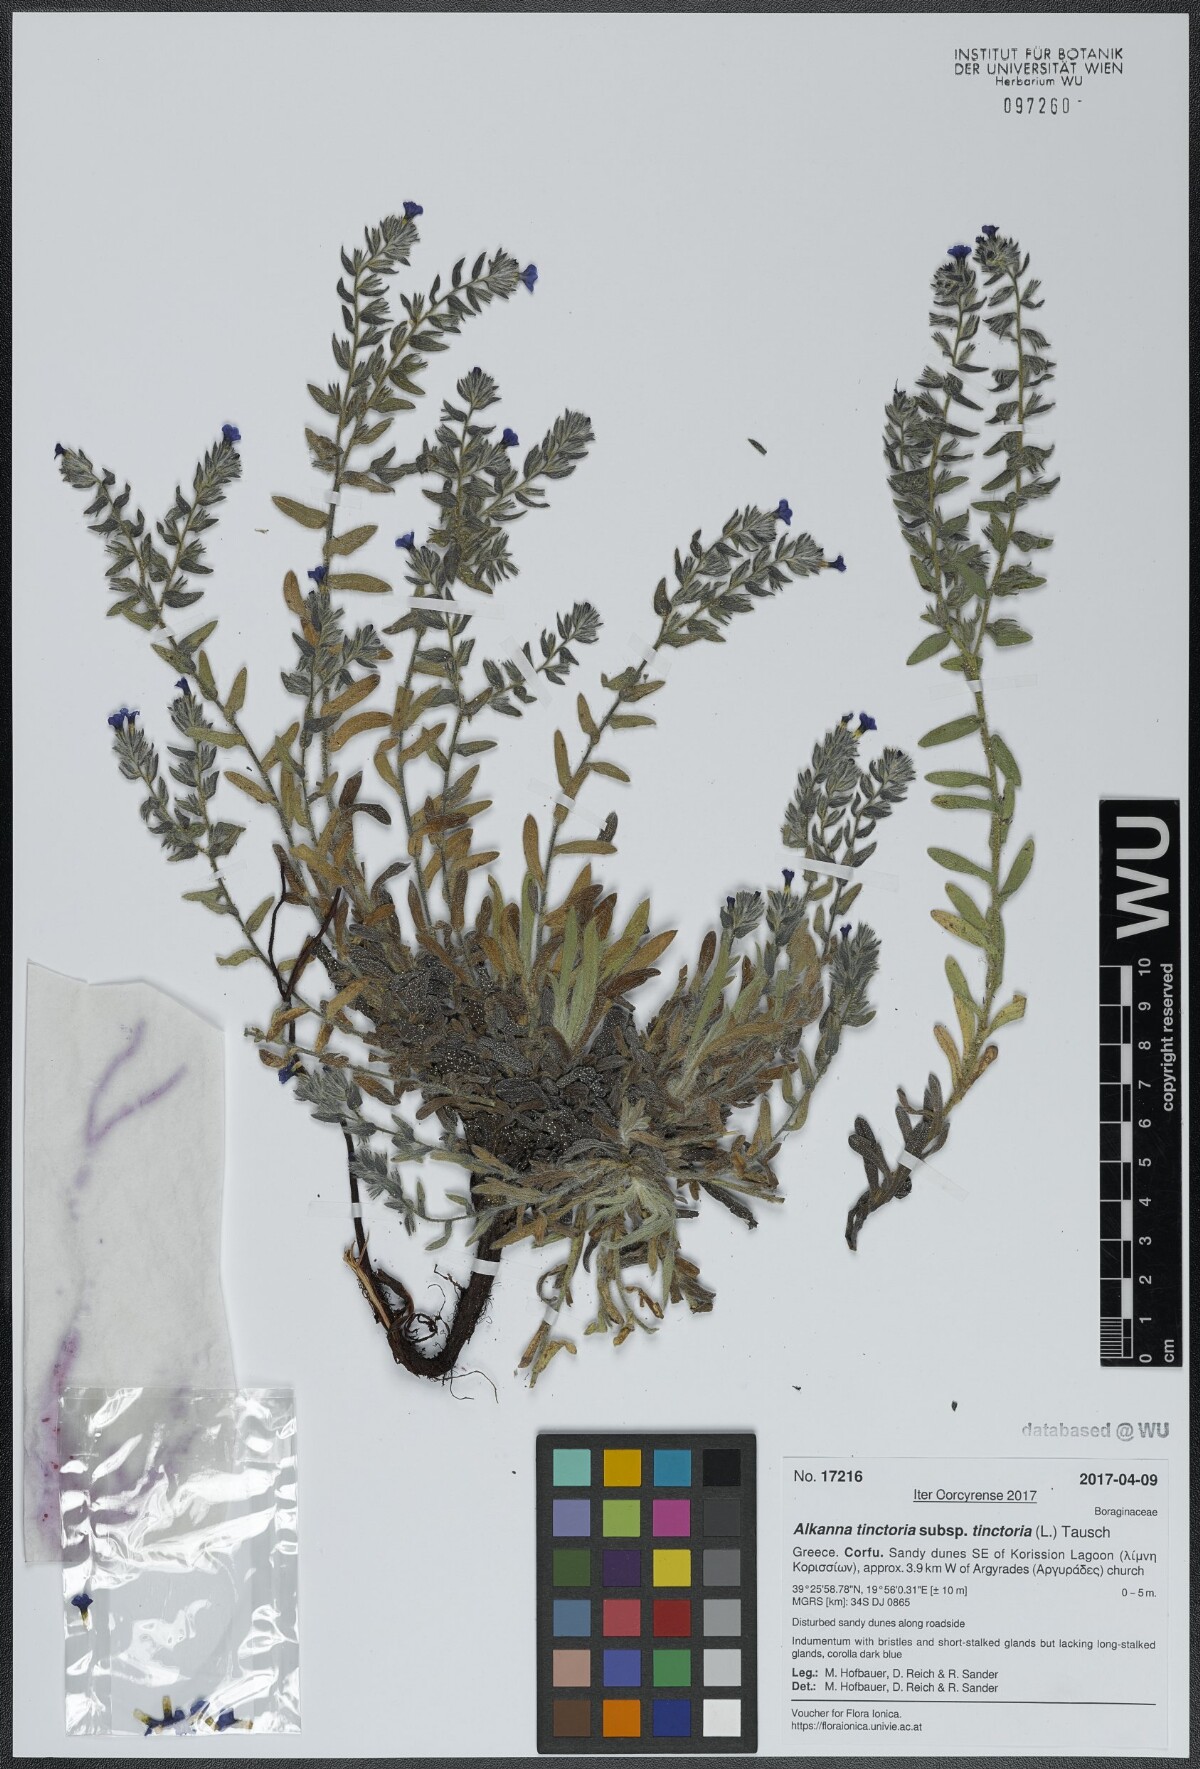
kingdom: Plantae
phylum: Tracheophyta
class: Magnoliopsida
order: Boraginales
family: Boraginaceae
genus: Alkanna
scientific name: Alkanna tinctoria
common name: Dyer's-alkanet
